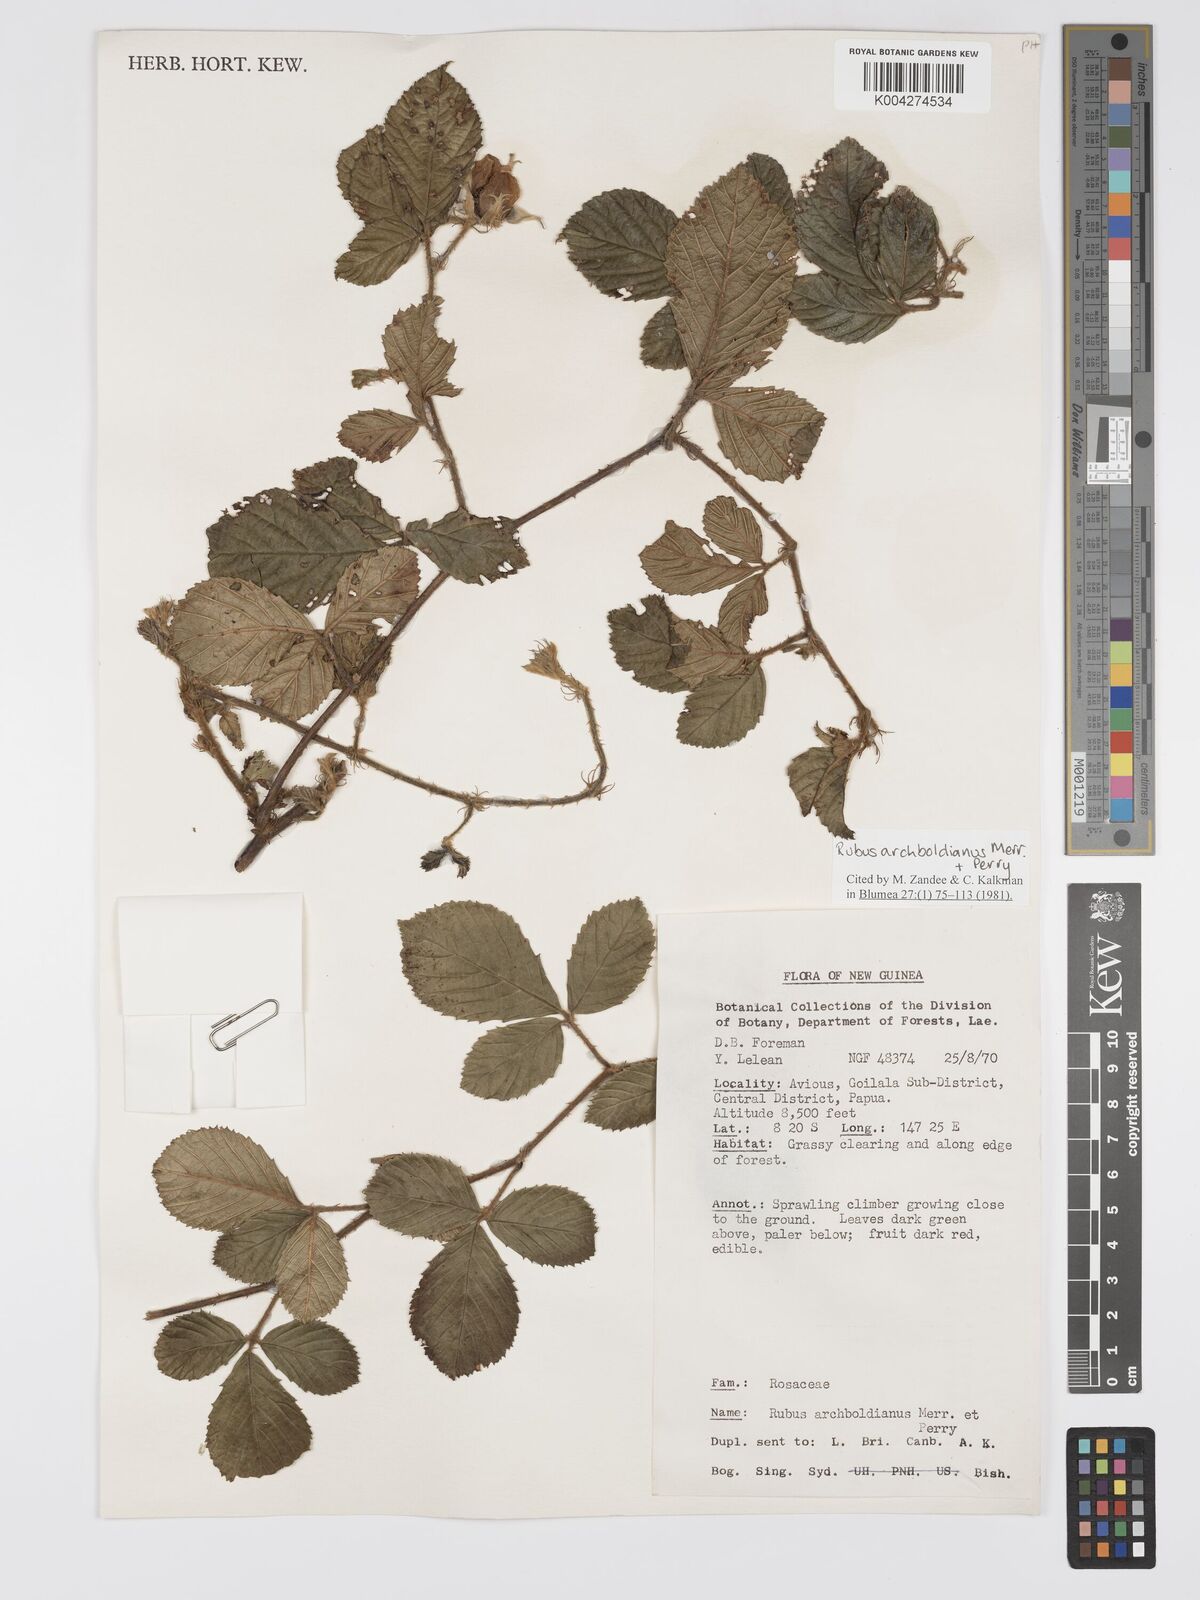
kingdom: Plantae
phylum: Tracheophyta
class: Magnoliopsida
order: Rosales
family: Rosaceae
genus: Rubus
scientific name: Rubus archboldianus
